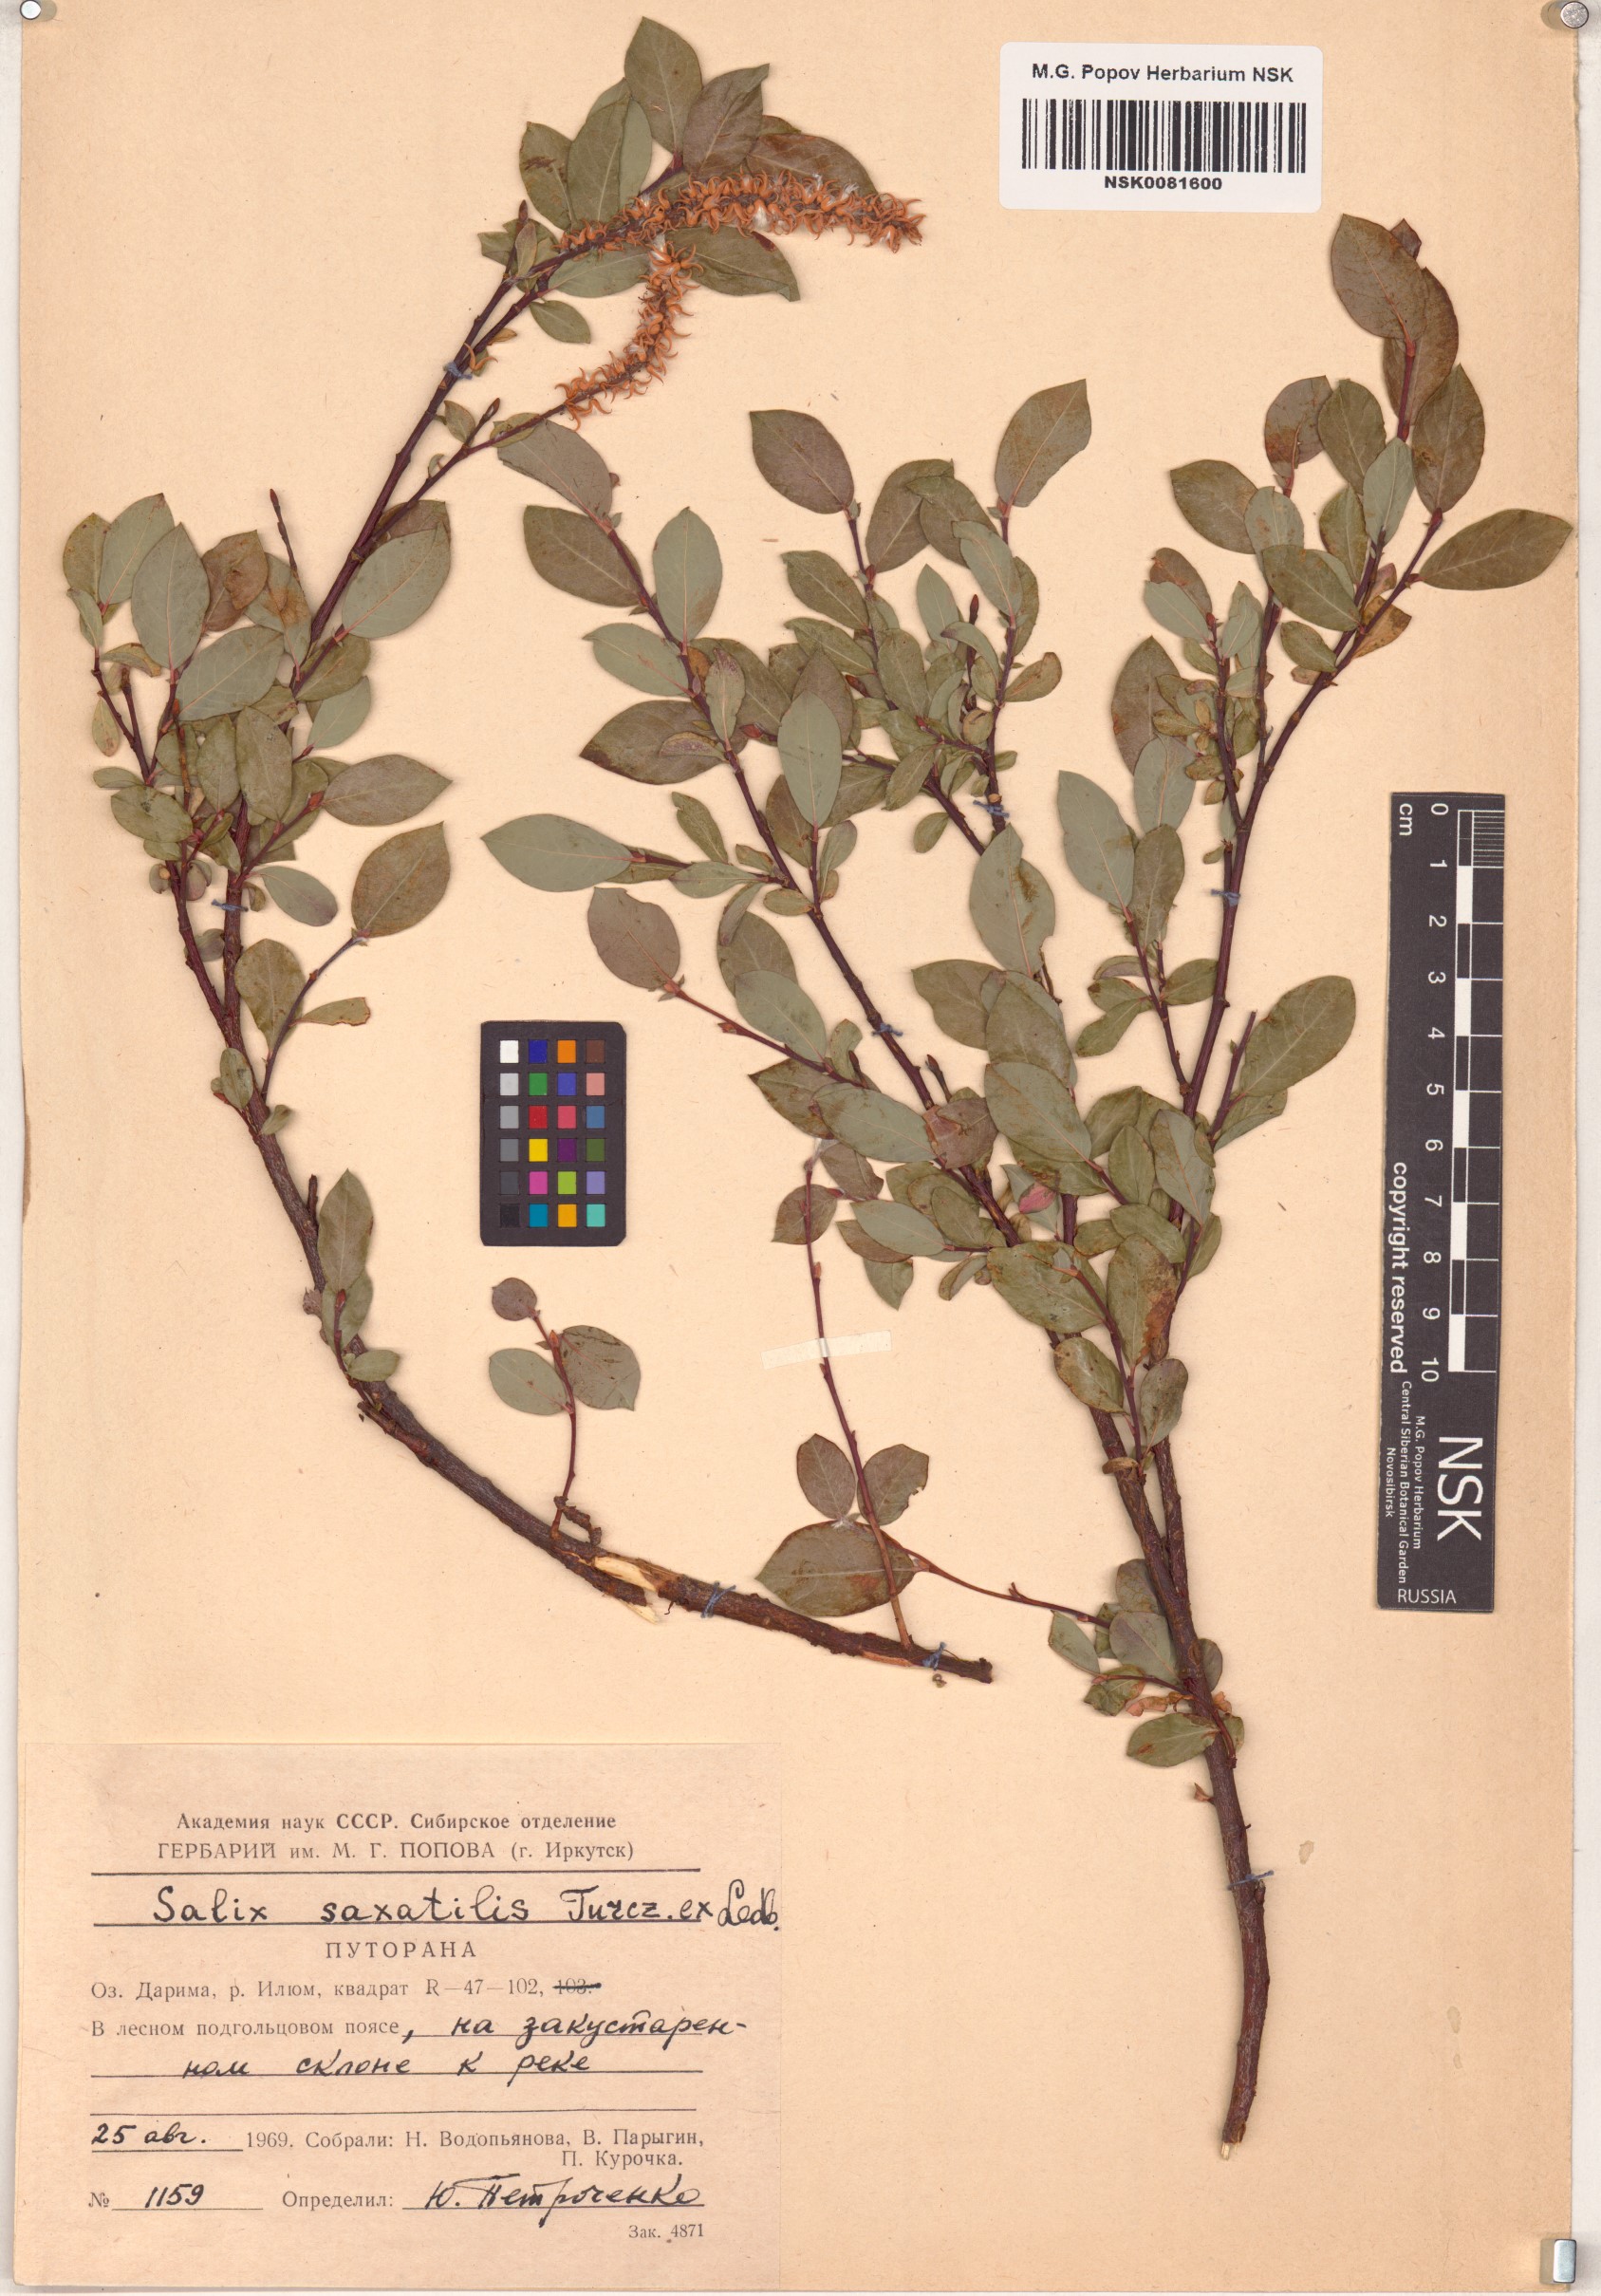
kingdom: Plantae
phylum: Tracheophyta
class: Magnoliopsida
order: Malpighiales
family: Salicaceae
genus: Salix
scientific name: Salix saxatilis
